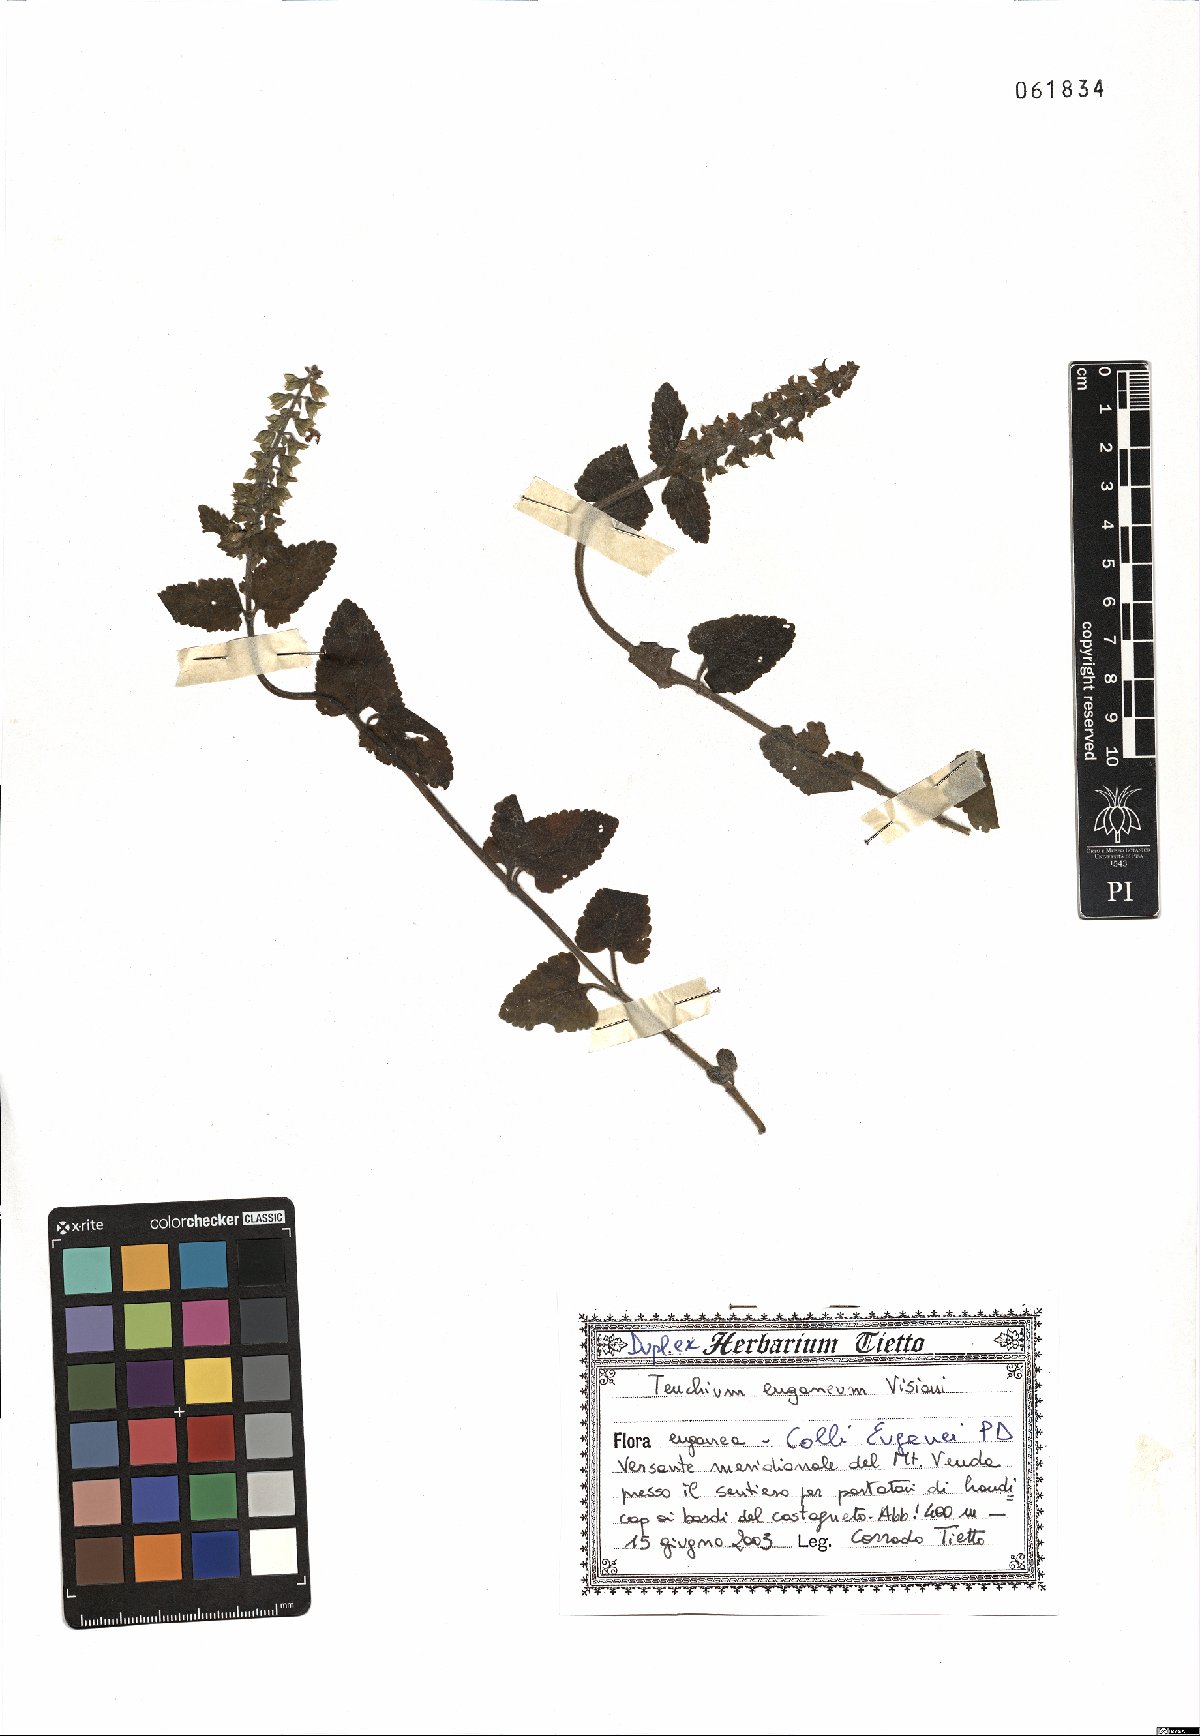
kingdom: Plantae
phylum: Tracheophyta
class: Magnoliopsida
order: Lamiales
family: Lamiaceae
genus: Teucrium
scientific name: Teucrium siculum
